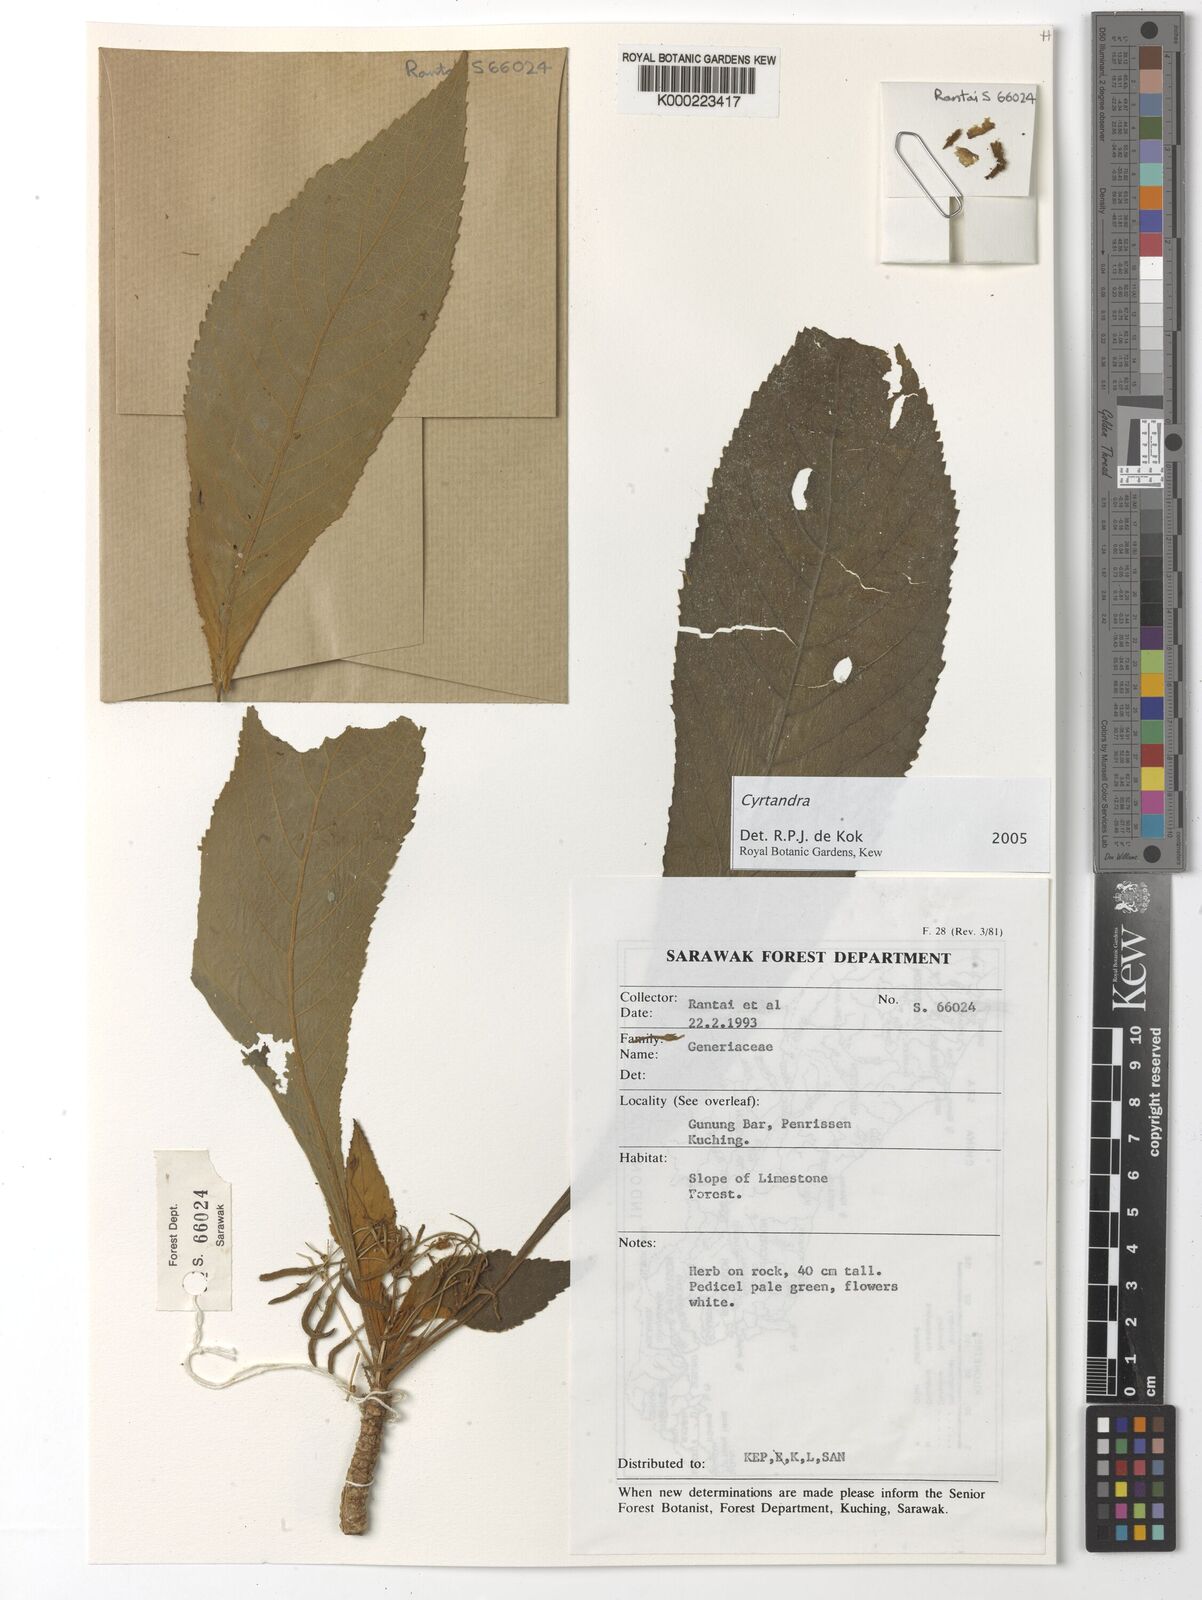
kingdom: Plantae
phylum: Tracheophyta
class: Magnoliopsida
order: Lamiales
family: Gesneriaceae
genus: Cyrtandra
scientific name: Cyrtandra
